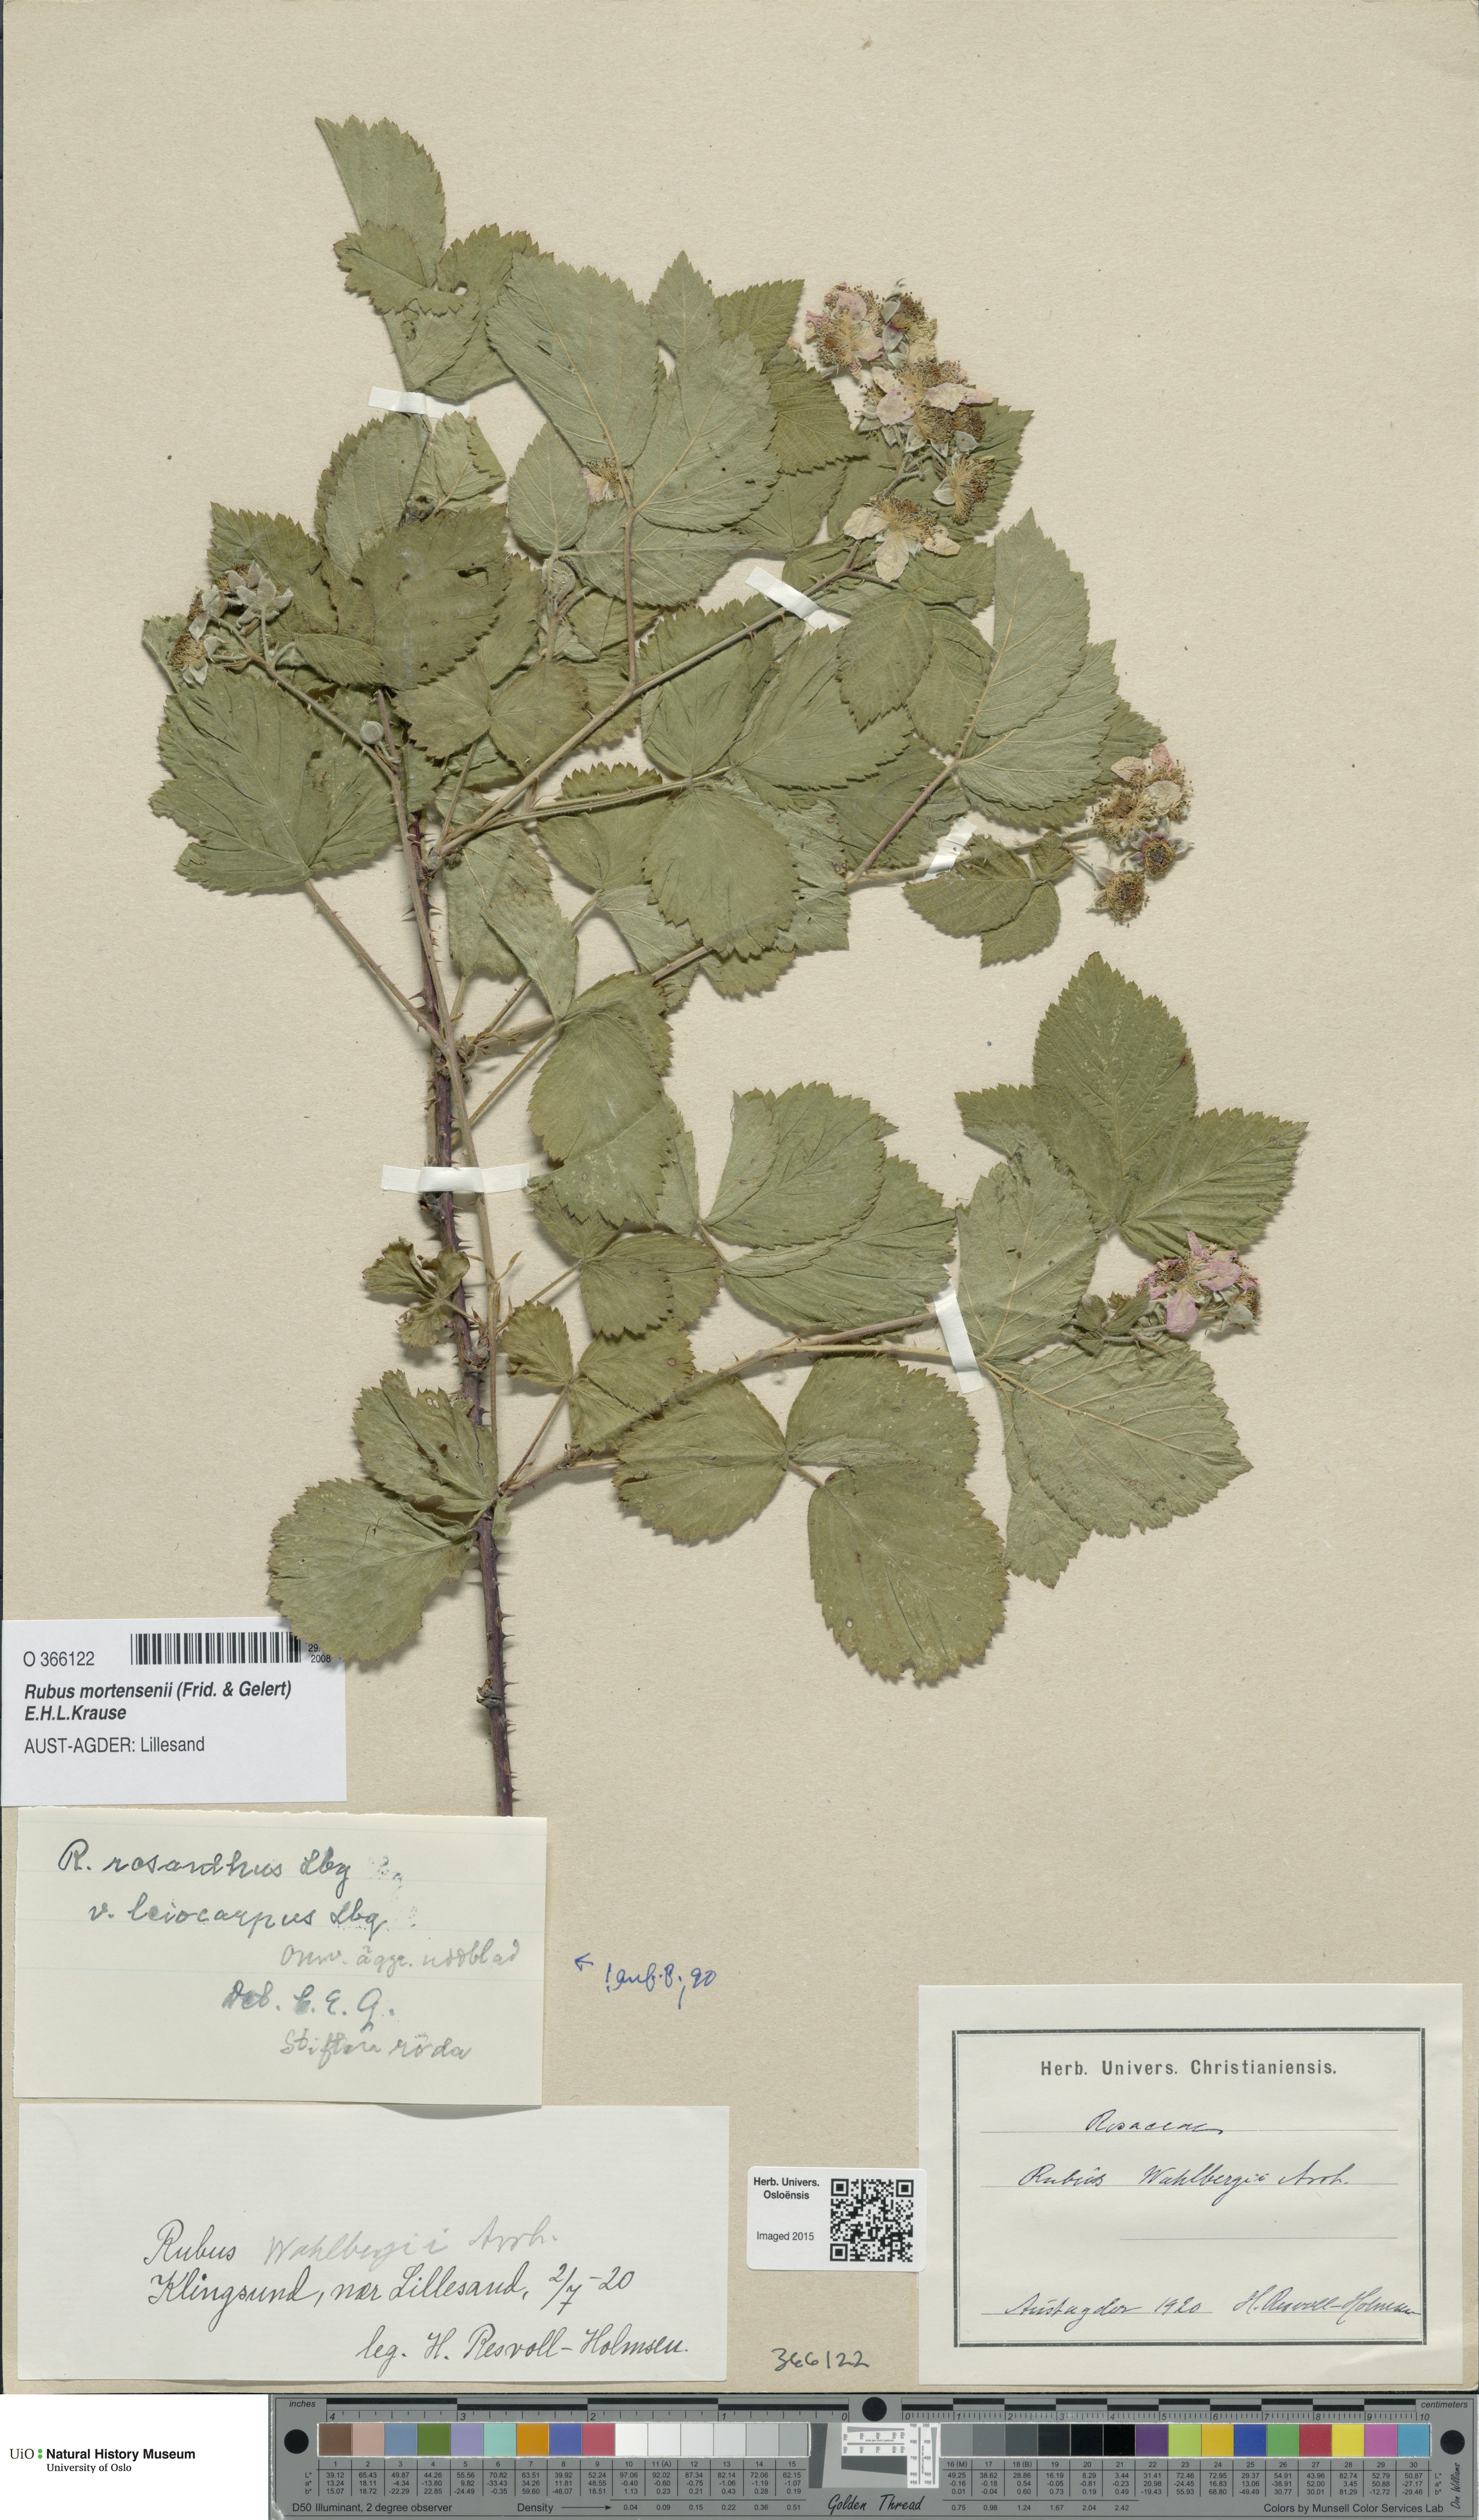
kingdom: Plantae
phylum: Tracheophyta
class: Magnoliopsida
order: Rosales
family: Rosaceae
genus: Rubus
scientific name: Rubus mortensenii
